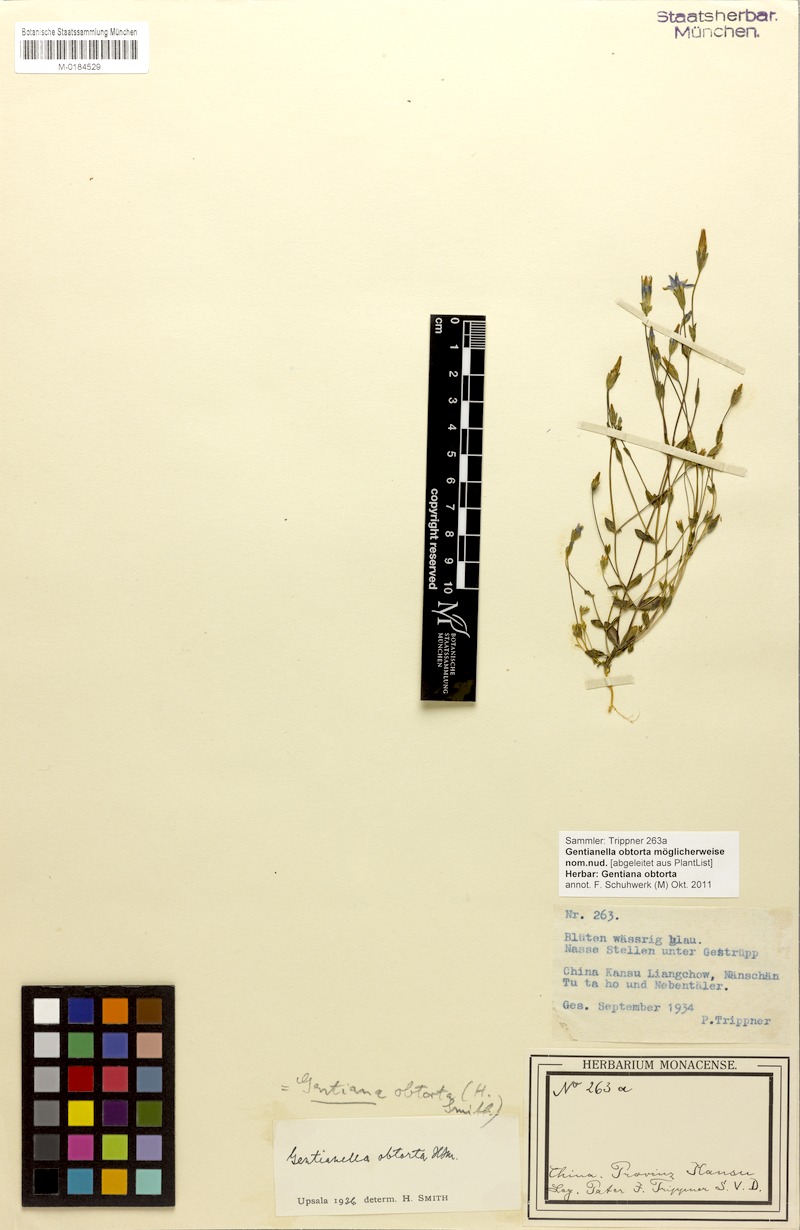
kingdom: Plantae
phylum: Tracheophyta
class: Magnoliopsida
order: Gentianales
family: Gentianaceae
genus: Gentianella
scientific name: Gentianella azurea
